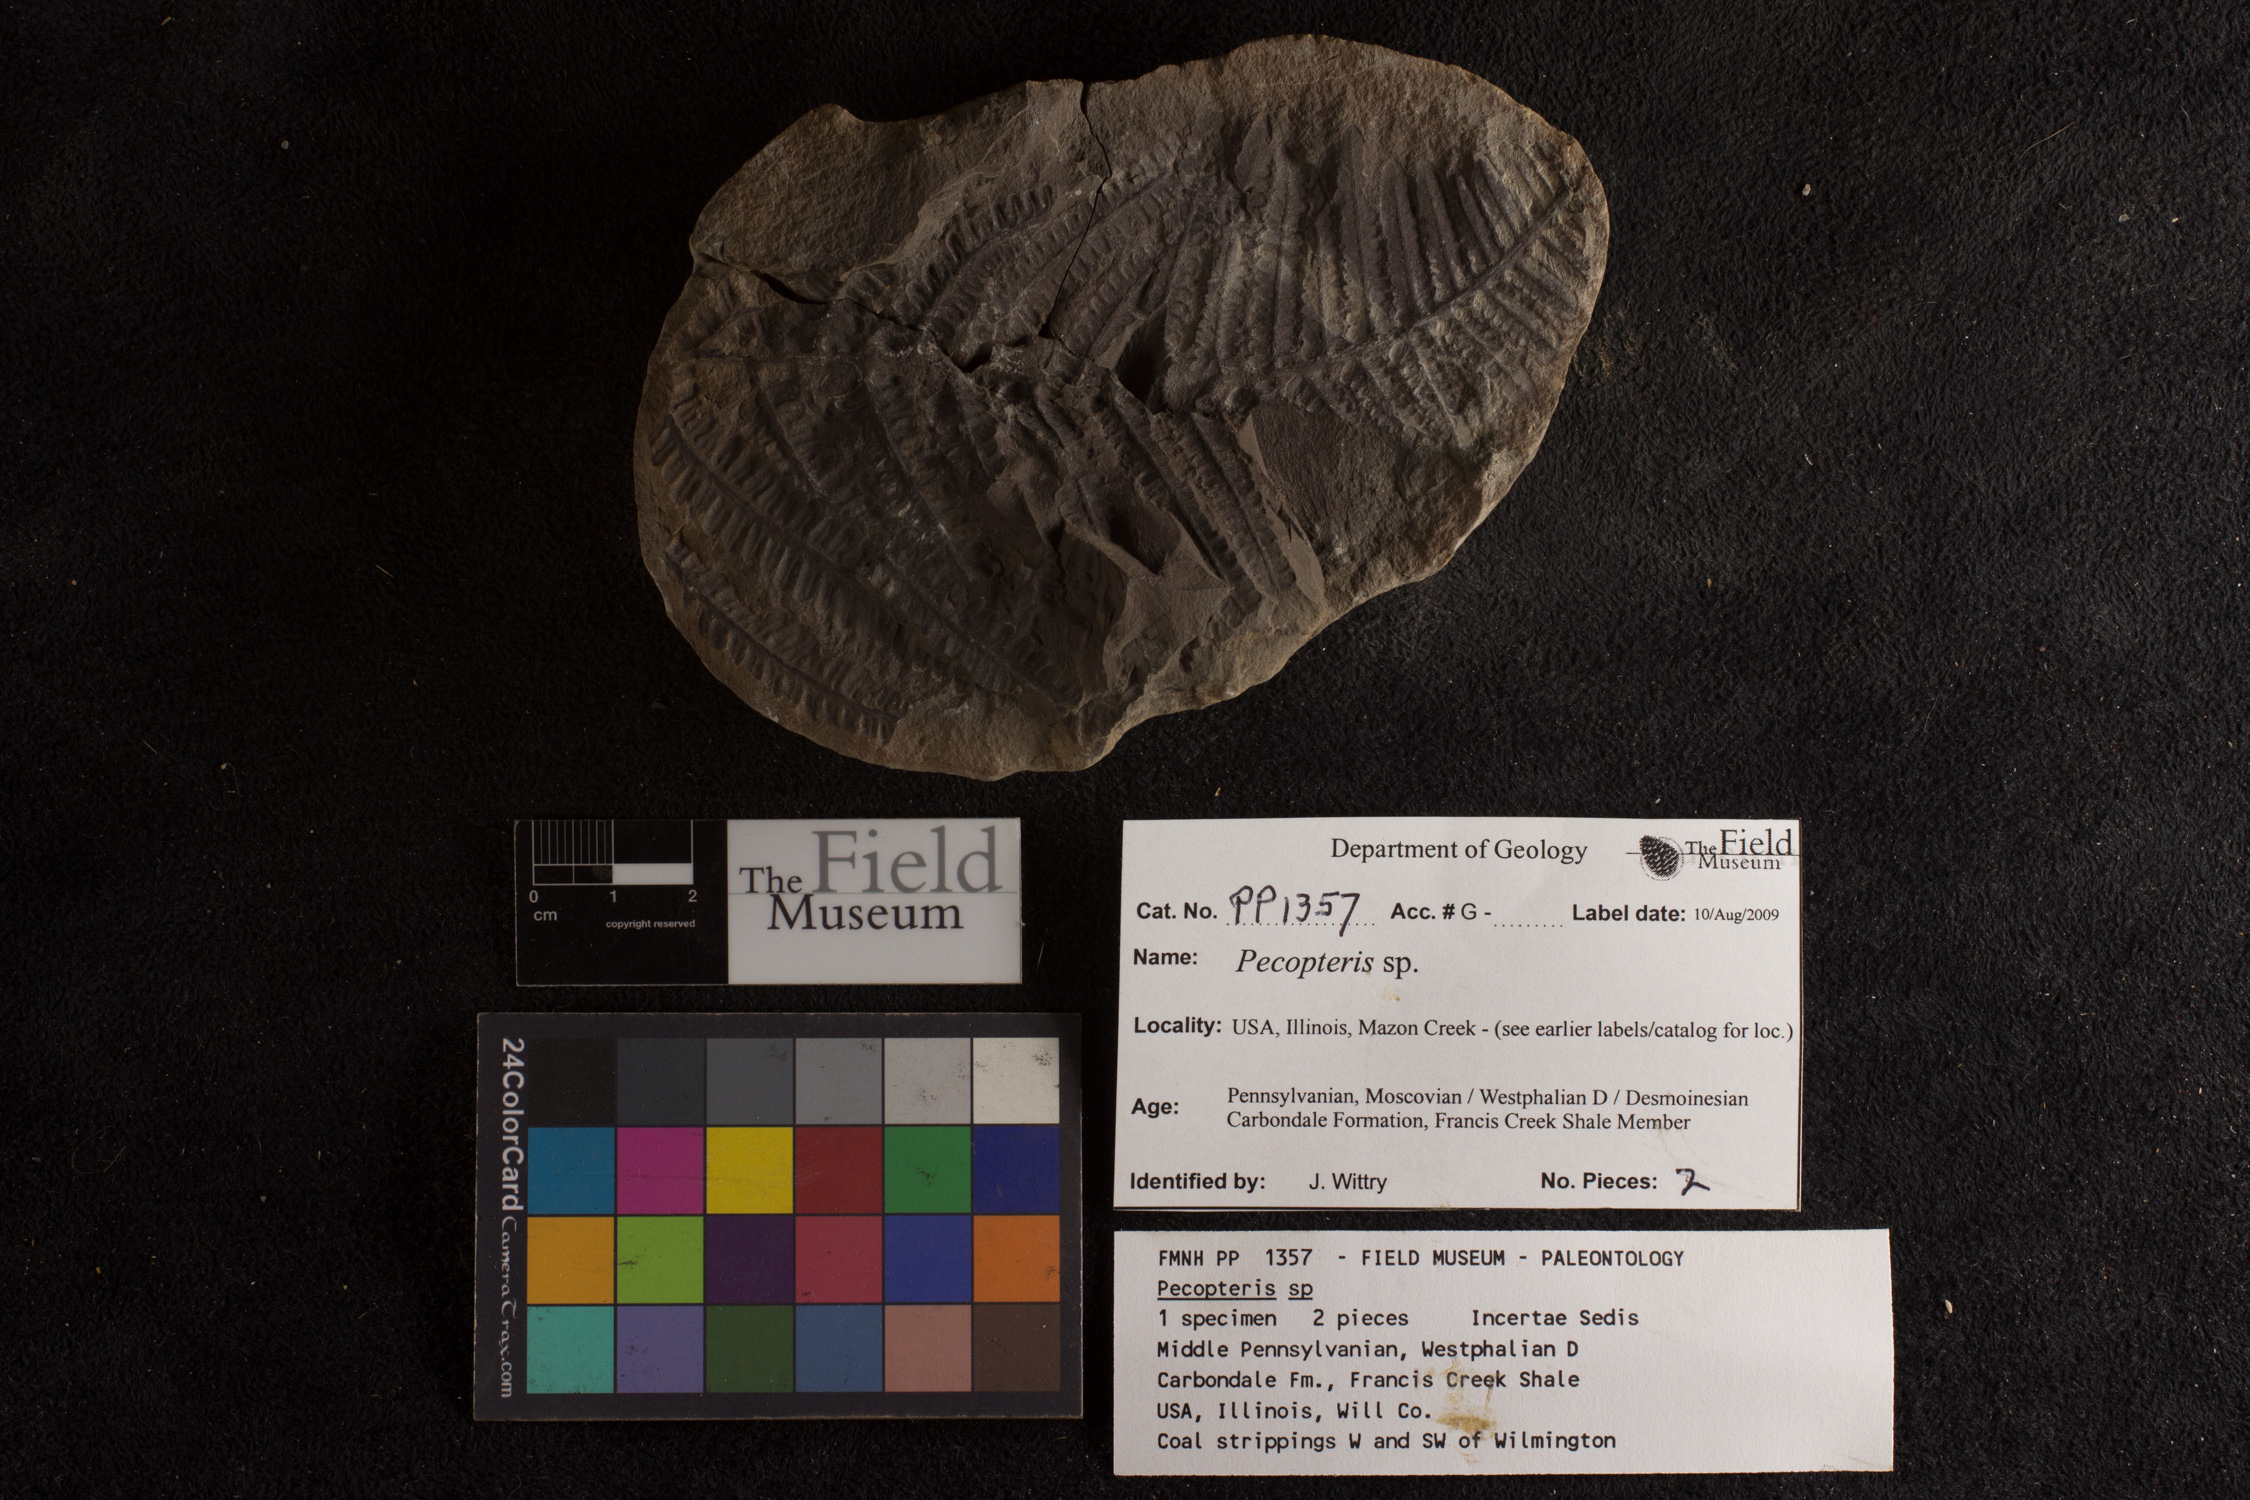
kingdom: Plantae
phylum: Tracheophyta
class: Polypodiopsida
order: Marattiales
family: Asterothecaceae
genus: Pecopteris
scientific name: Pecopteris
